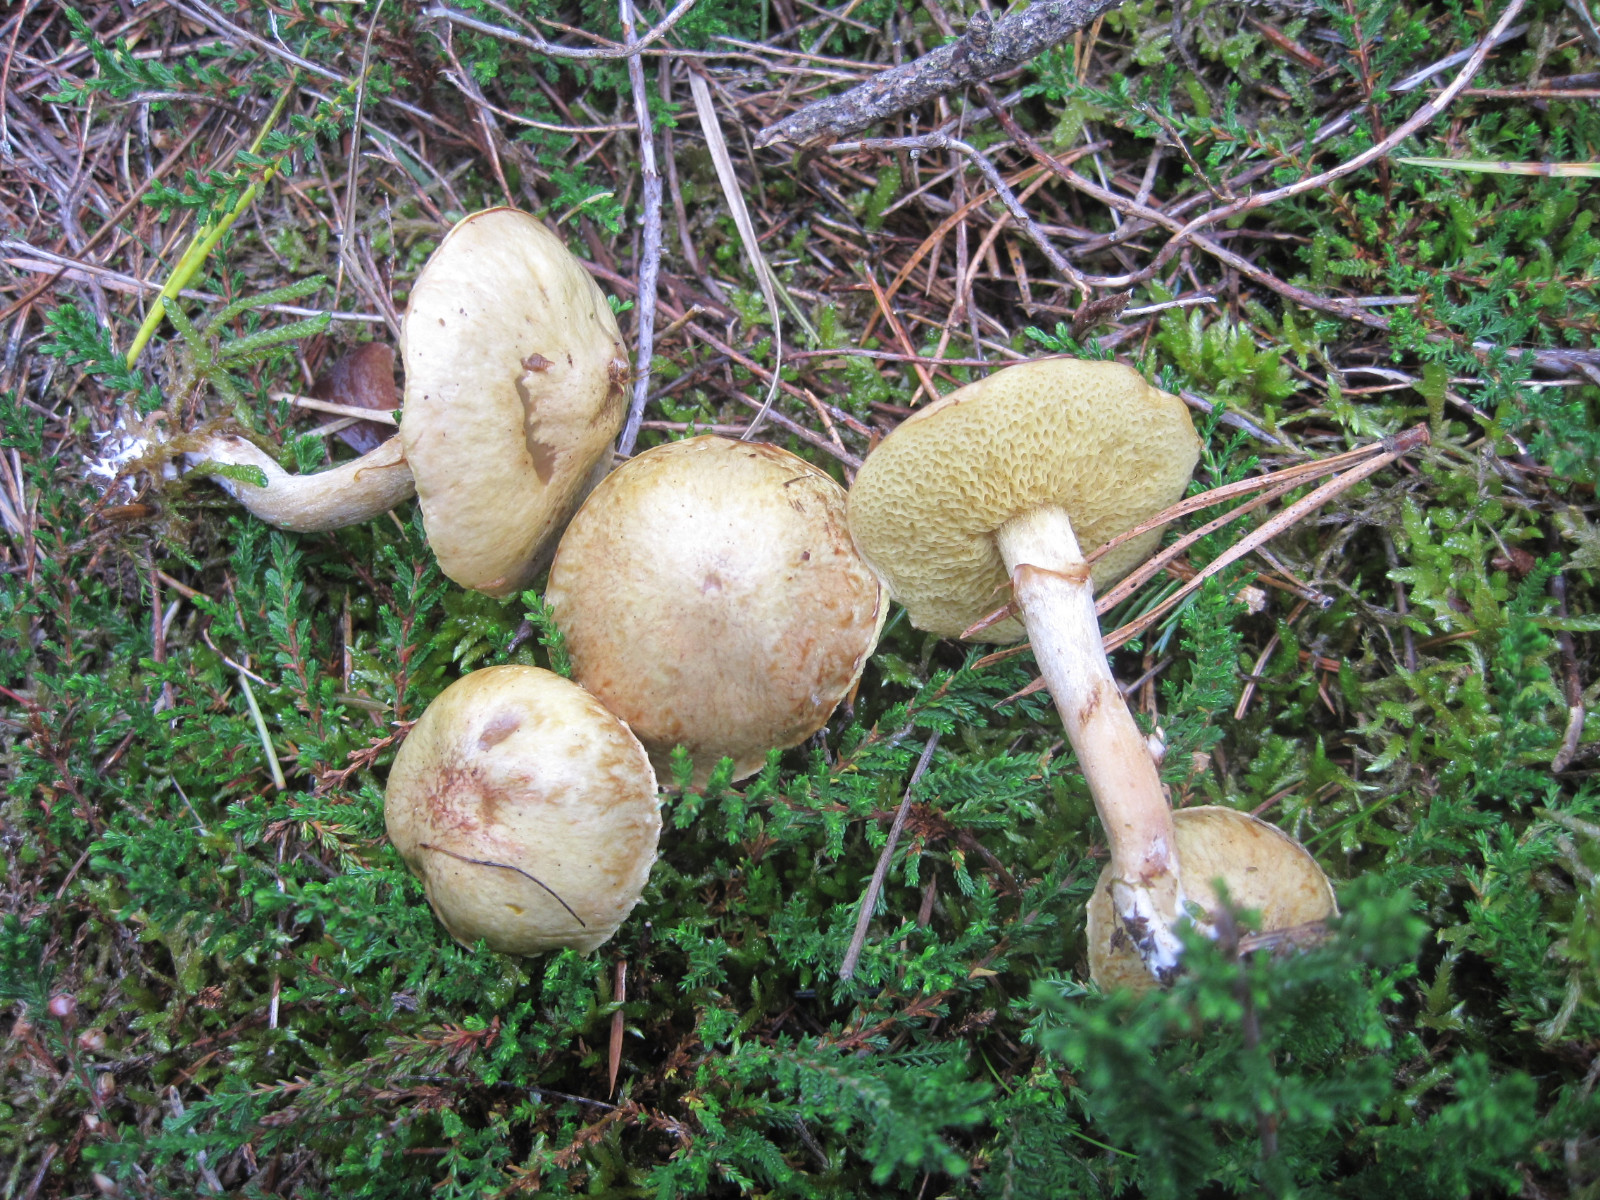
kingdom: Fungi
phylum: Basidiomycota
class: Agaricomycetes
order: Boletales
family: Suillaceae
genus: Suillus
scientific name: Suillus flavidus
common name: mose-slimrørhat
